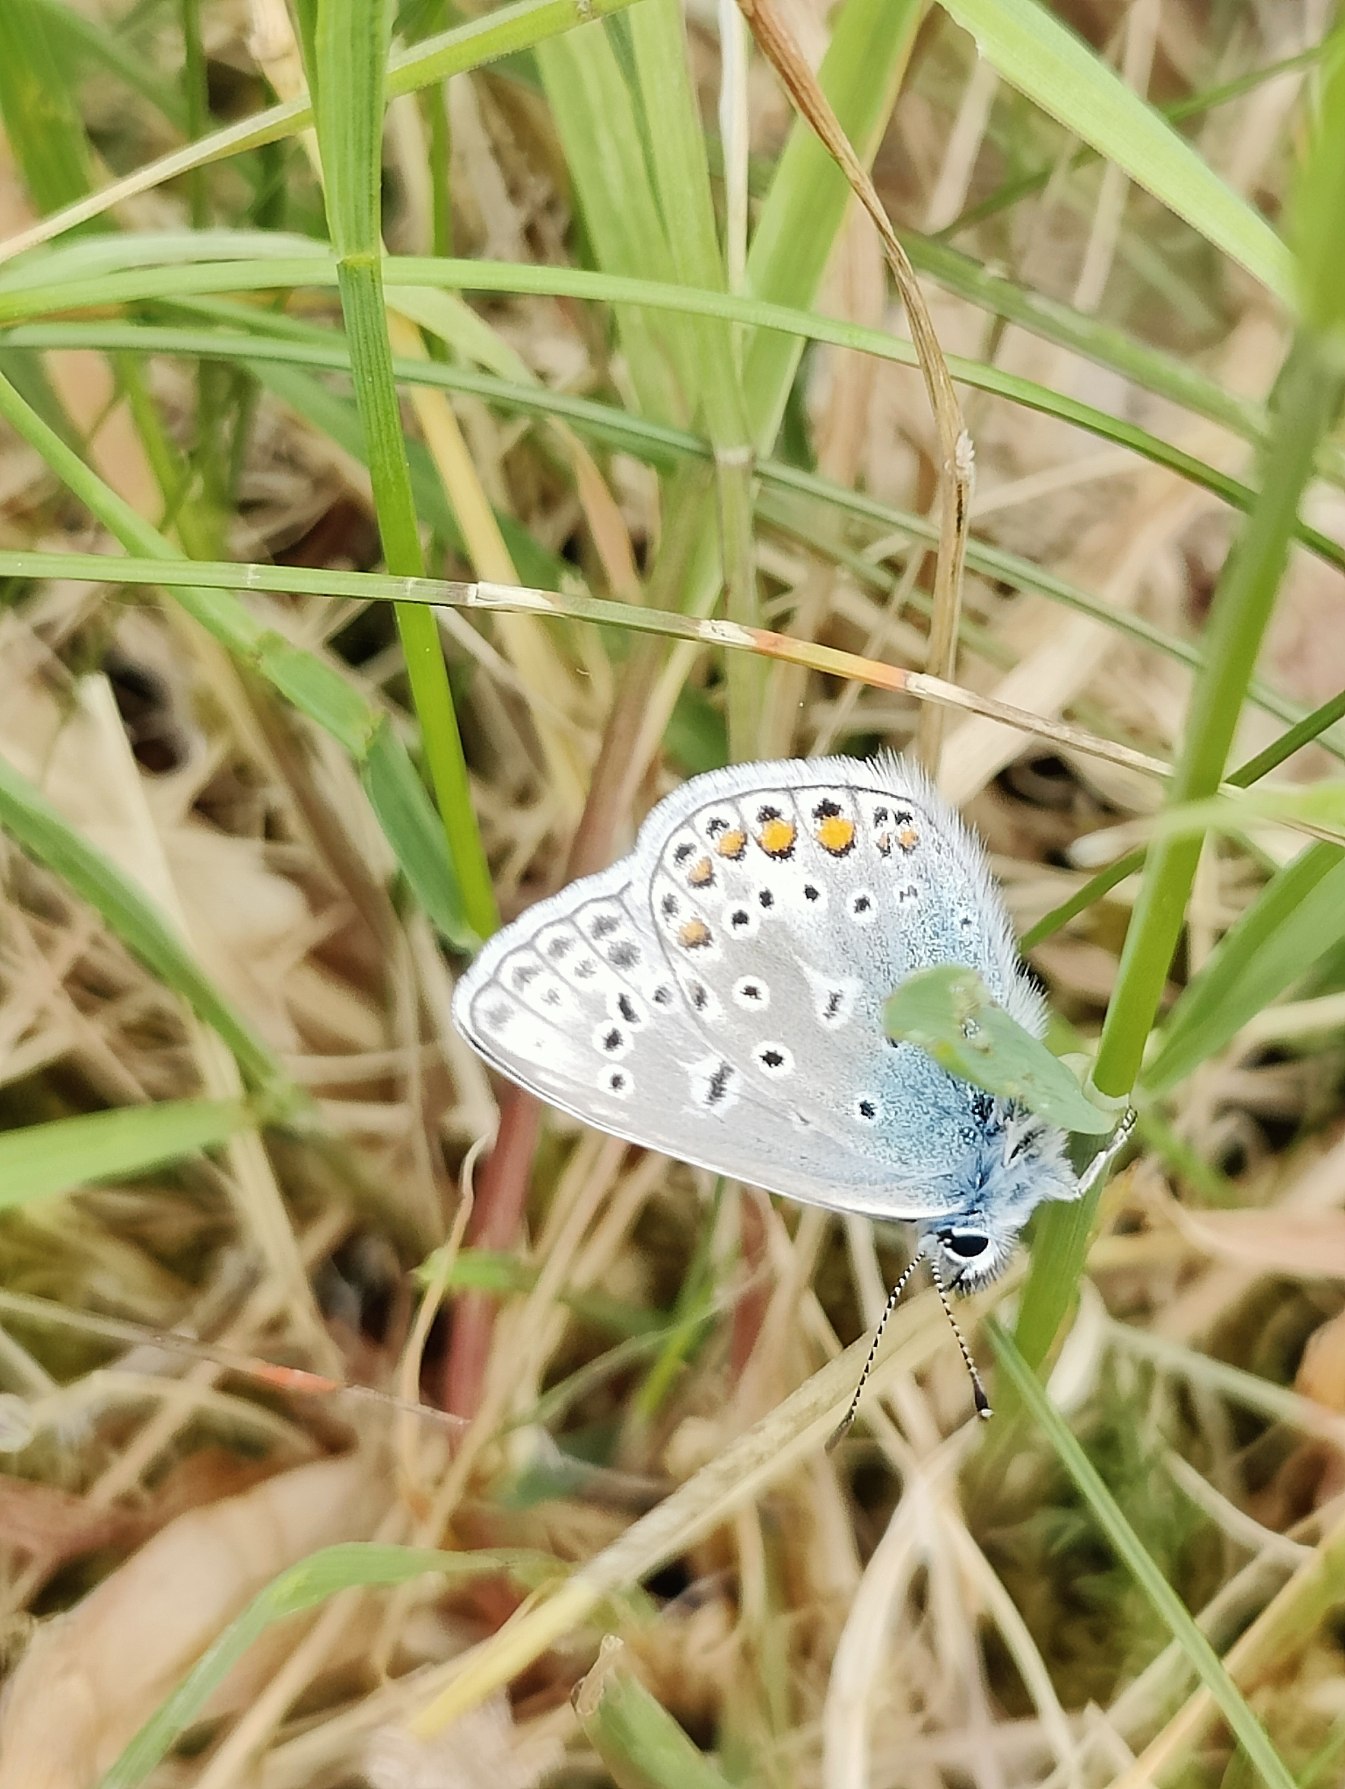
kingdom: Animalia
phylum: Arthropoda
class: Insecta
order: Lepidoptera
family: Lycaenidae
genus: Polyommatus
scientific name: Polyommatus icarus
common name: Almindelig blåfugl
